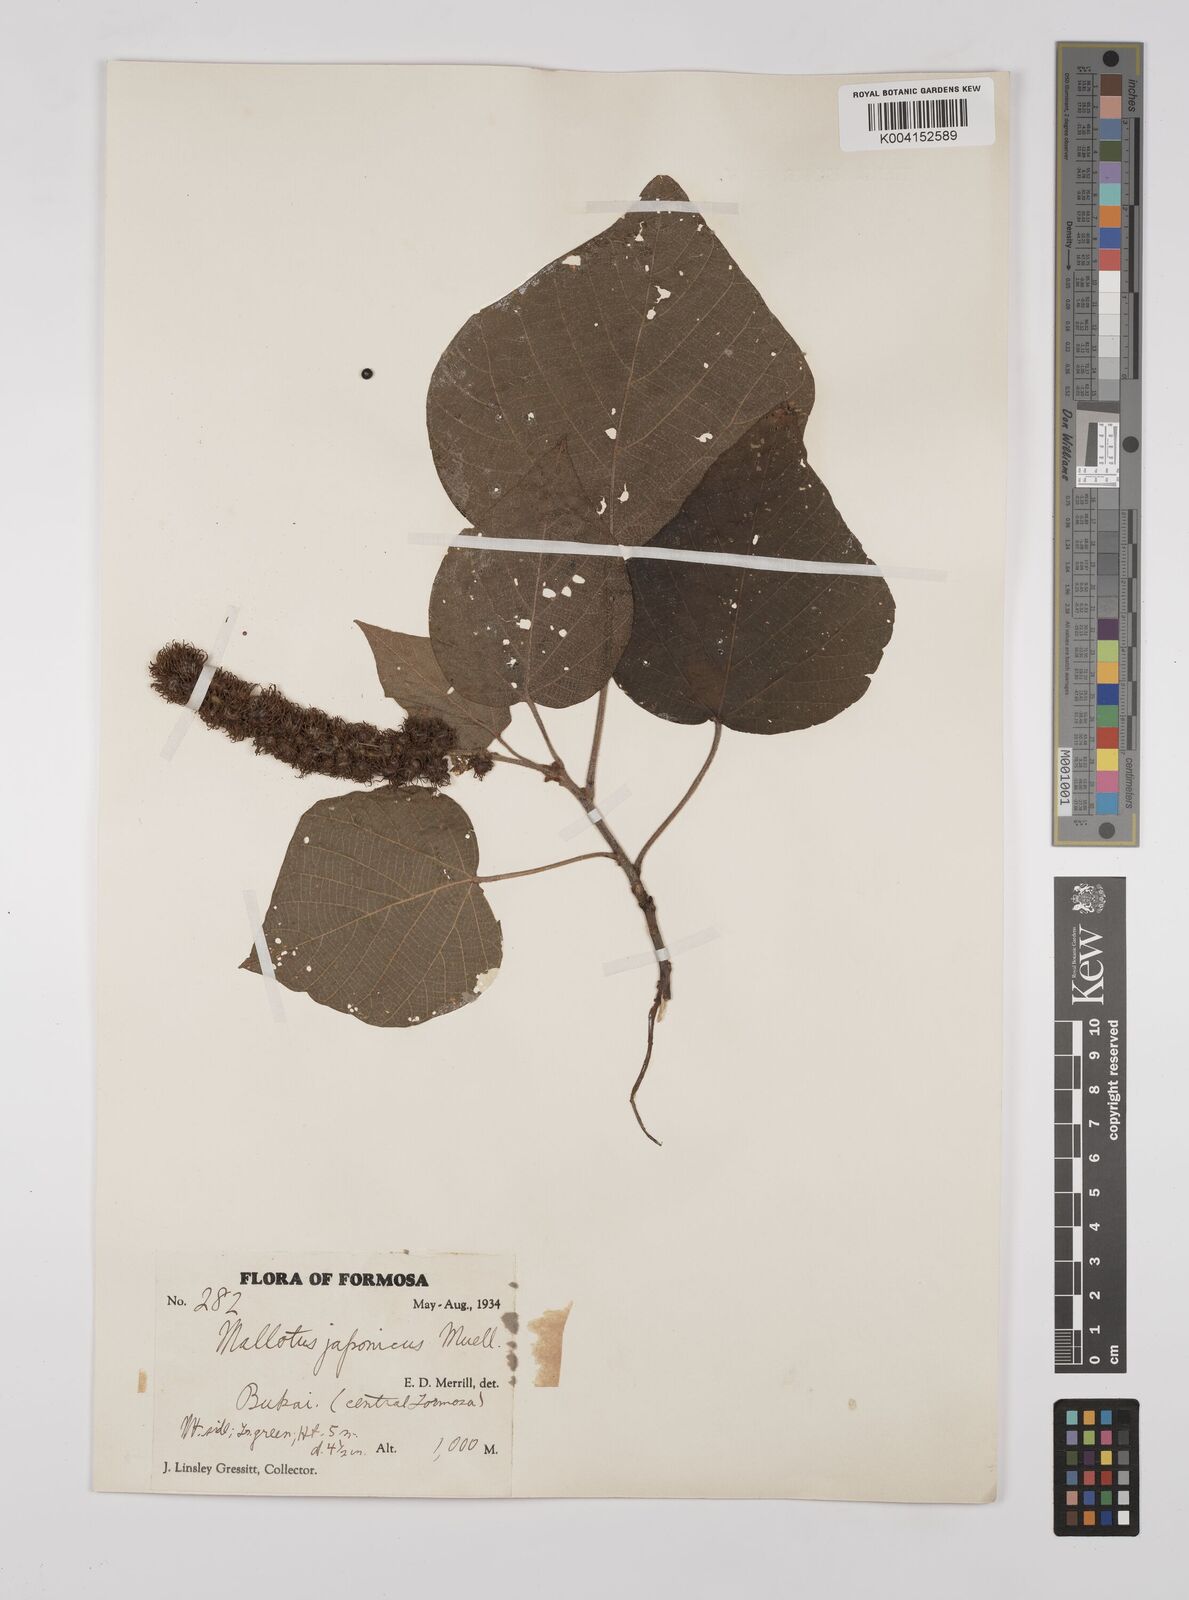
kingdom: Plantae
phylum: Tracheophyta
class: Magnoliopsida
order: Malpighiales
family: Euphorbiaceae
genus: Mallotus
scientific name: Mallotus japonicus
